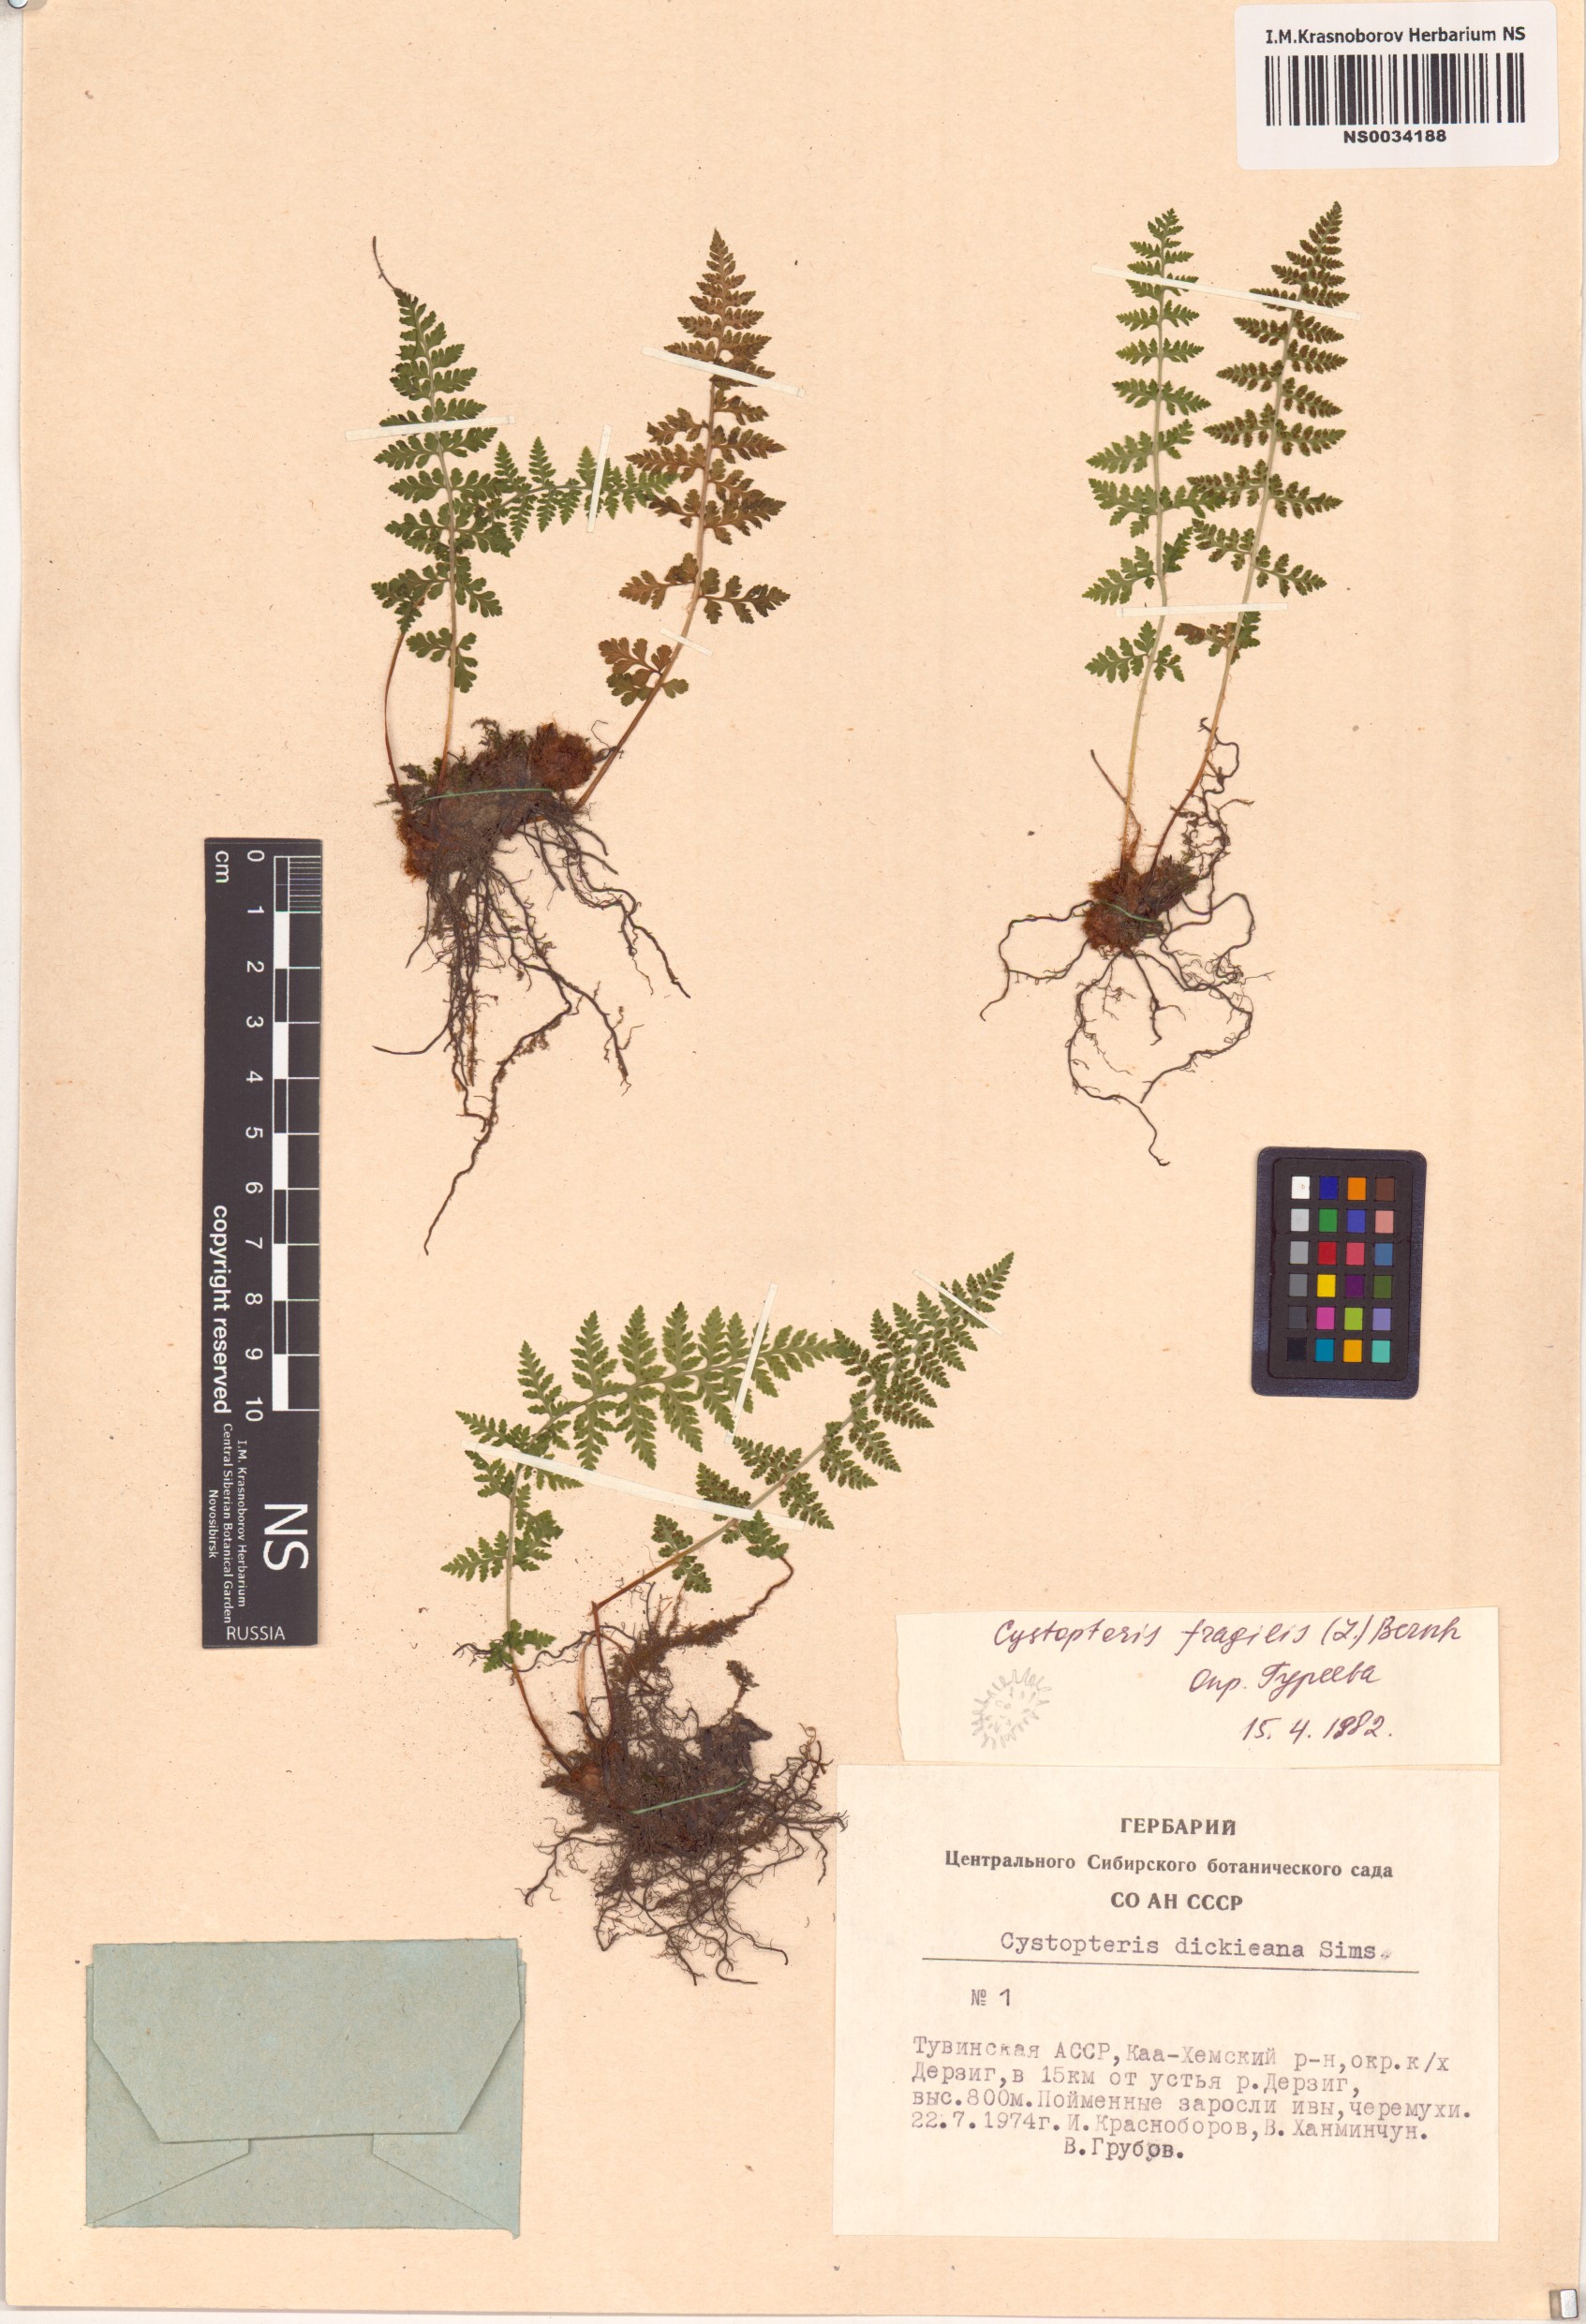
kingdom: Plantae
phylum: Tracheophyta
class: Polypodiopsida
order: Polypodiales
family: Cystopteridaceae
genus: Cystopteris
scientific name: Cystopteris fragilis
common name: Brittle bladder fern
